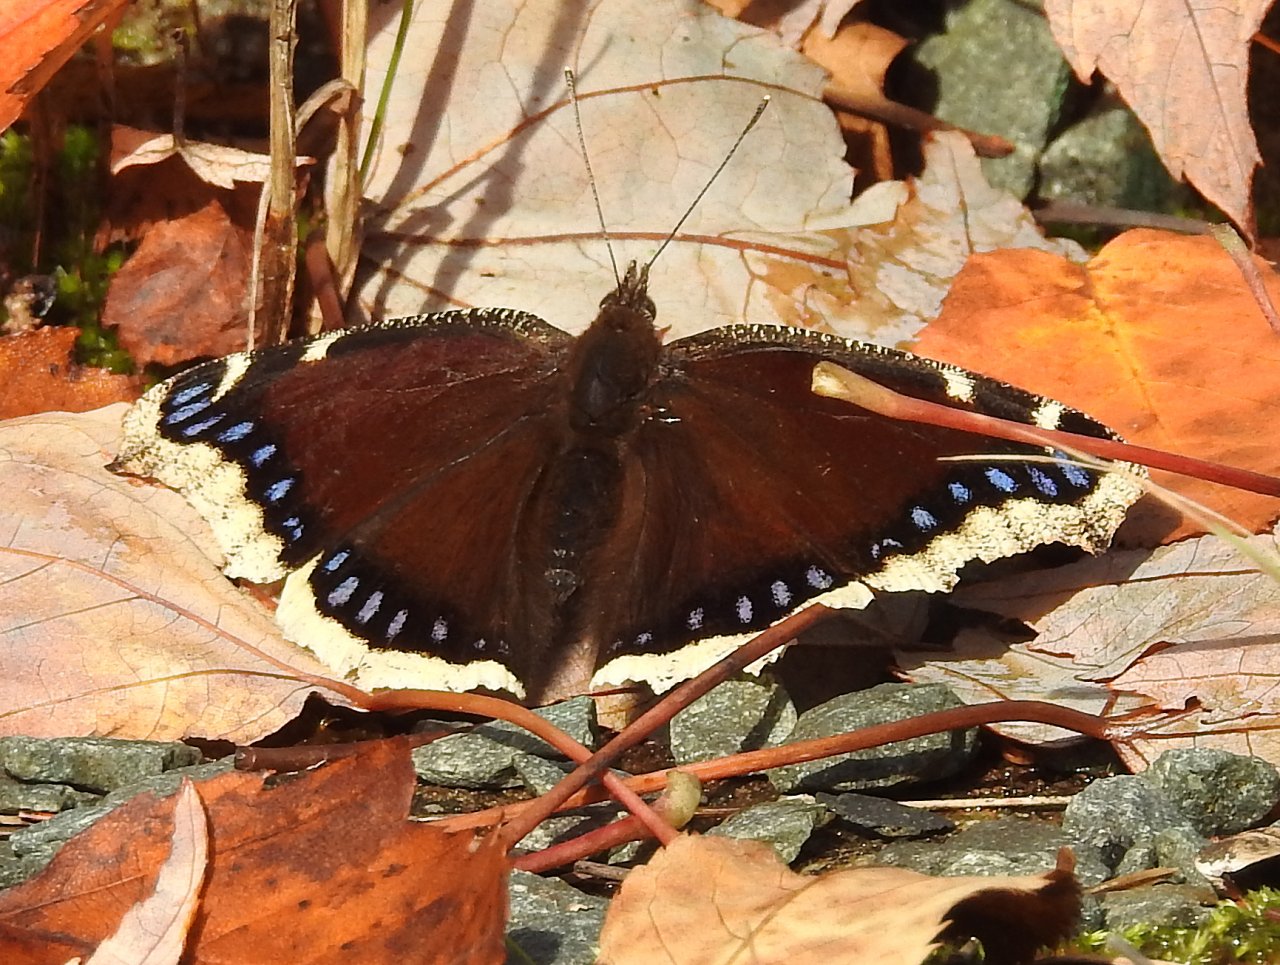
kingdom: Animalia
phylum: Arthropoda
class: Insecta
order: Lepidoptera
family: Nymphalidae
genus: Nymphalis
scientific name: Nymphalis antiopa
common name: Mourning Cloak
